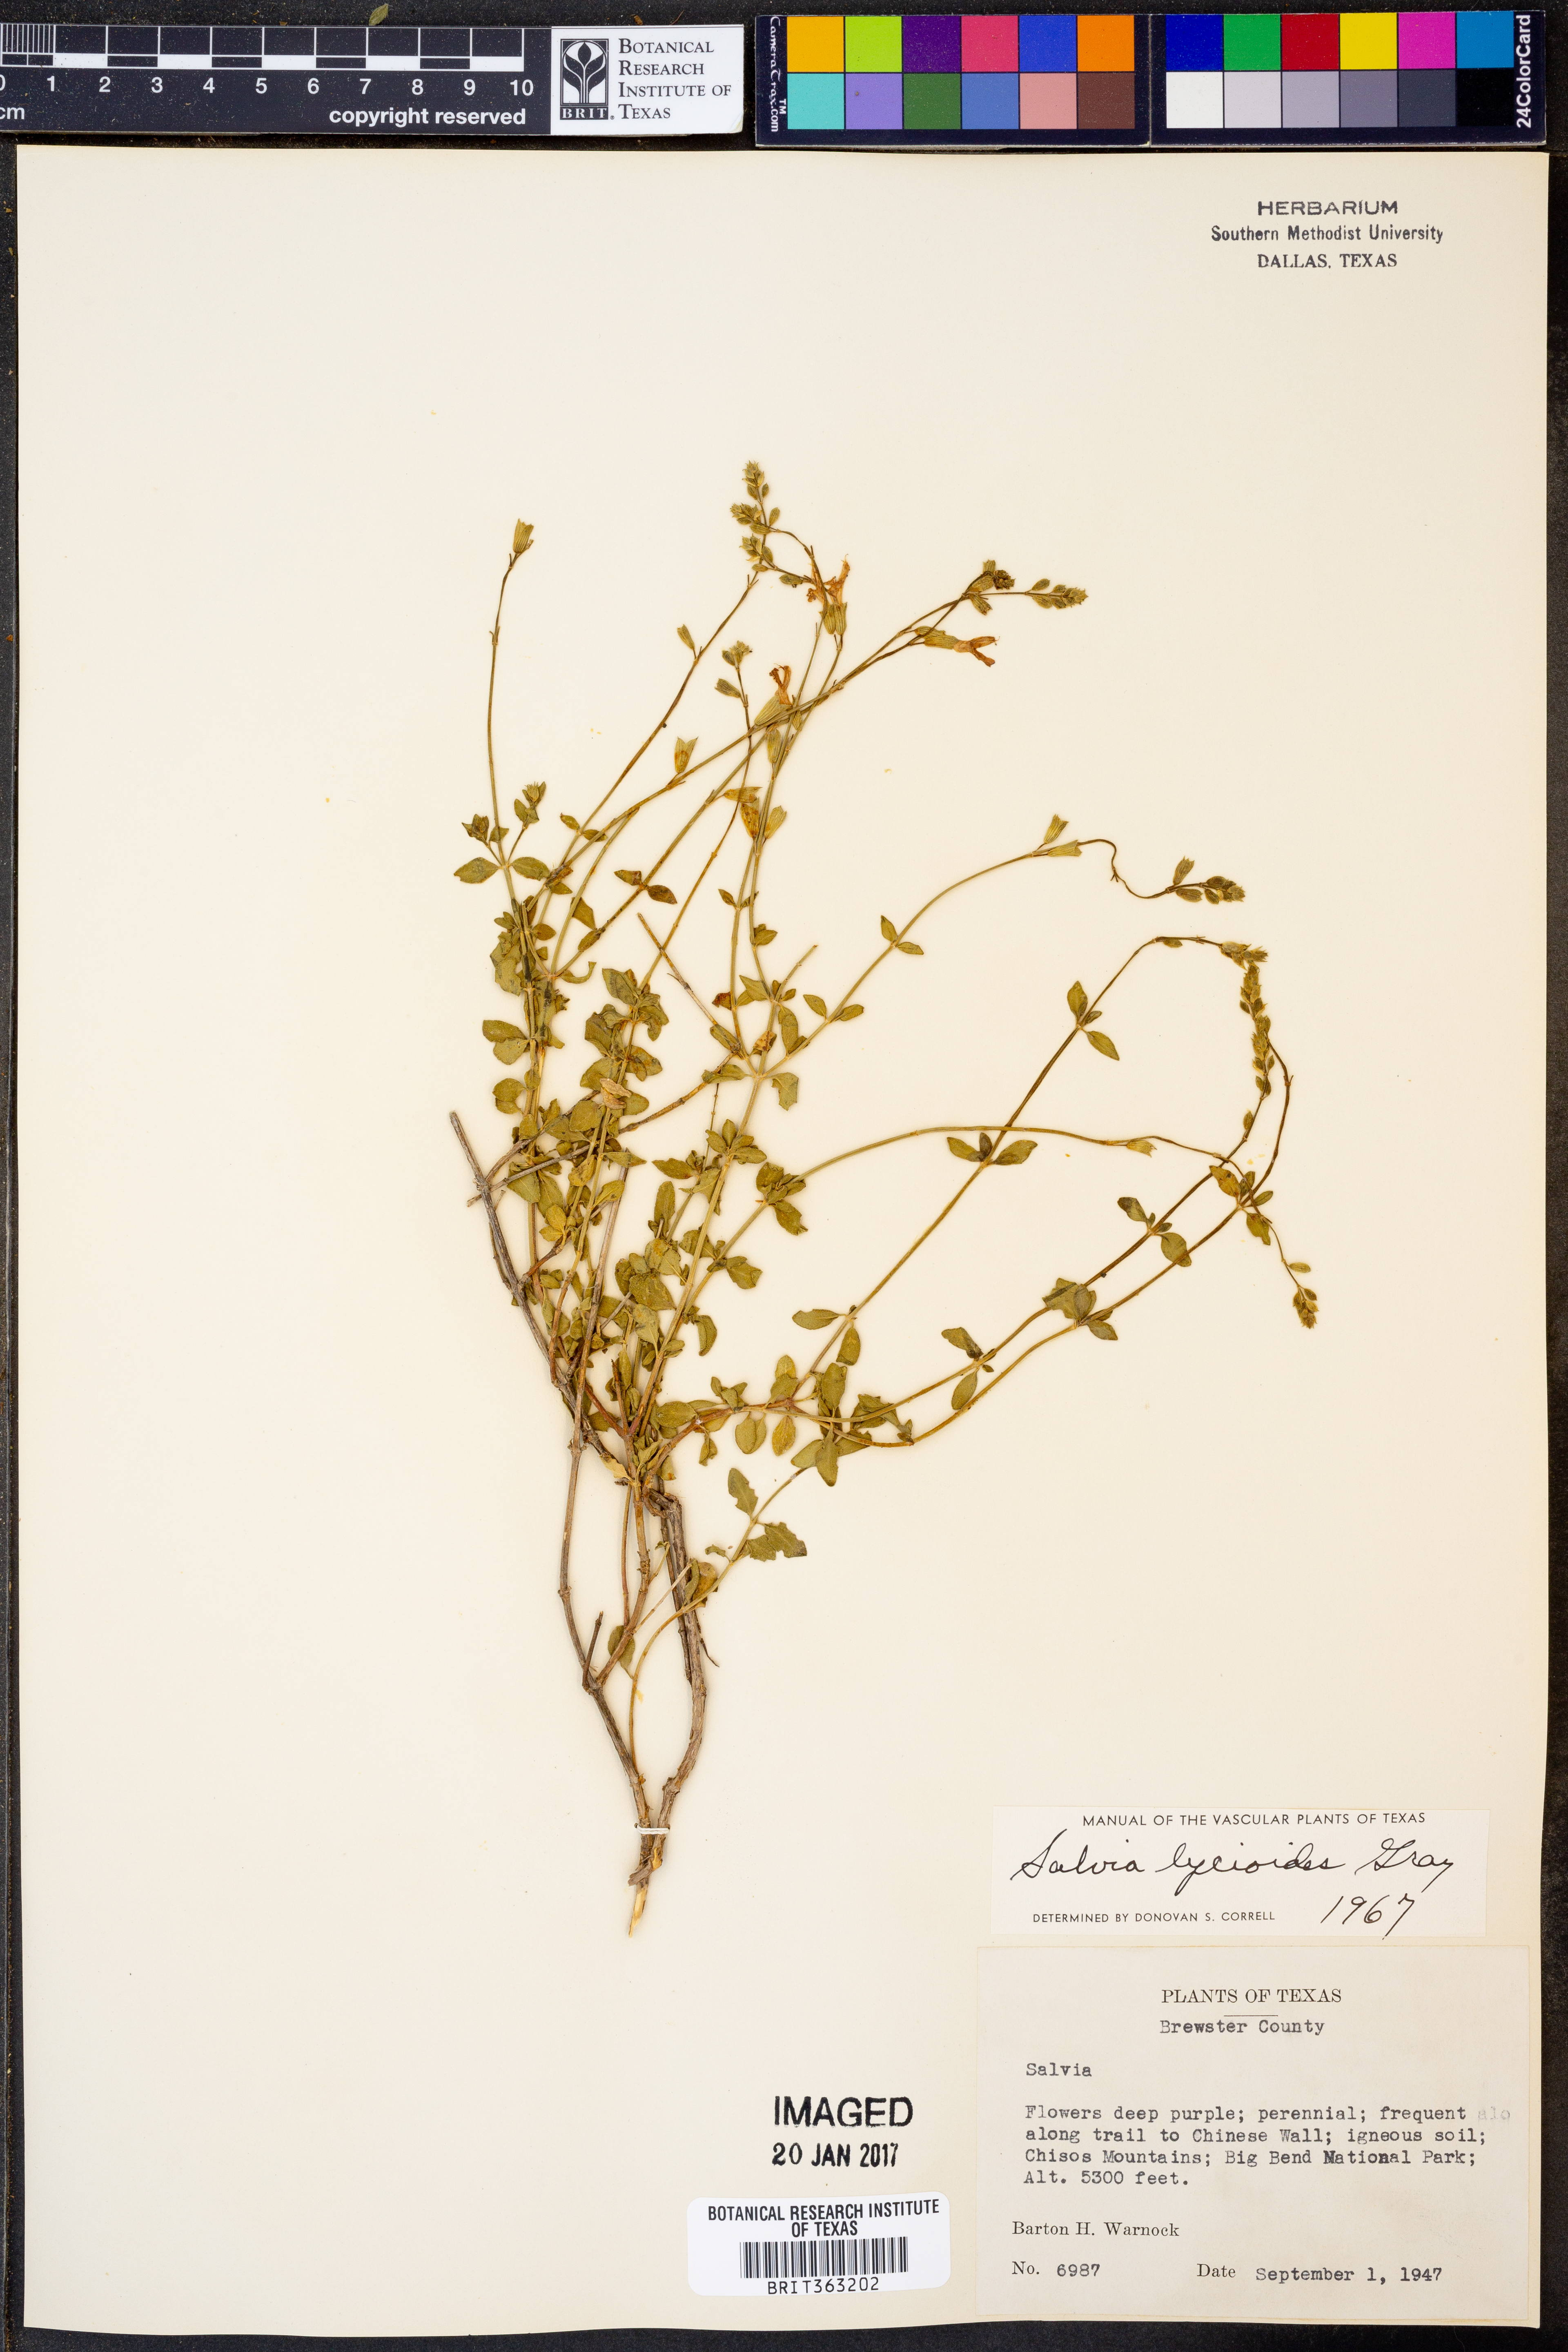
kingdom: Plantae
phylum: Tracheophyta
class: Magnoliopsida
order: Lamiales
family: Lamiaceae
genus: Salvia
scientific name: Salvia lycioides
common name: Canyon sage
